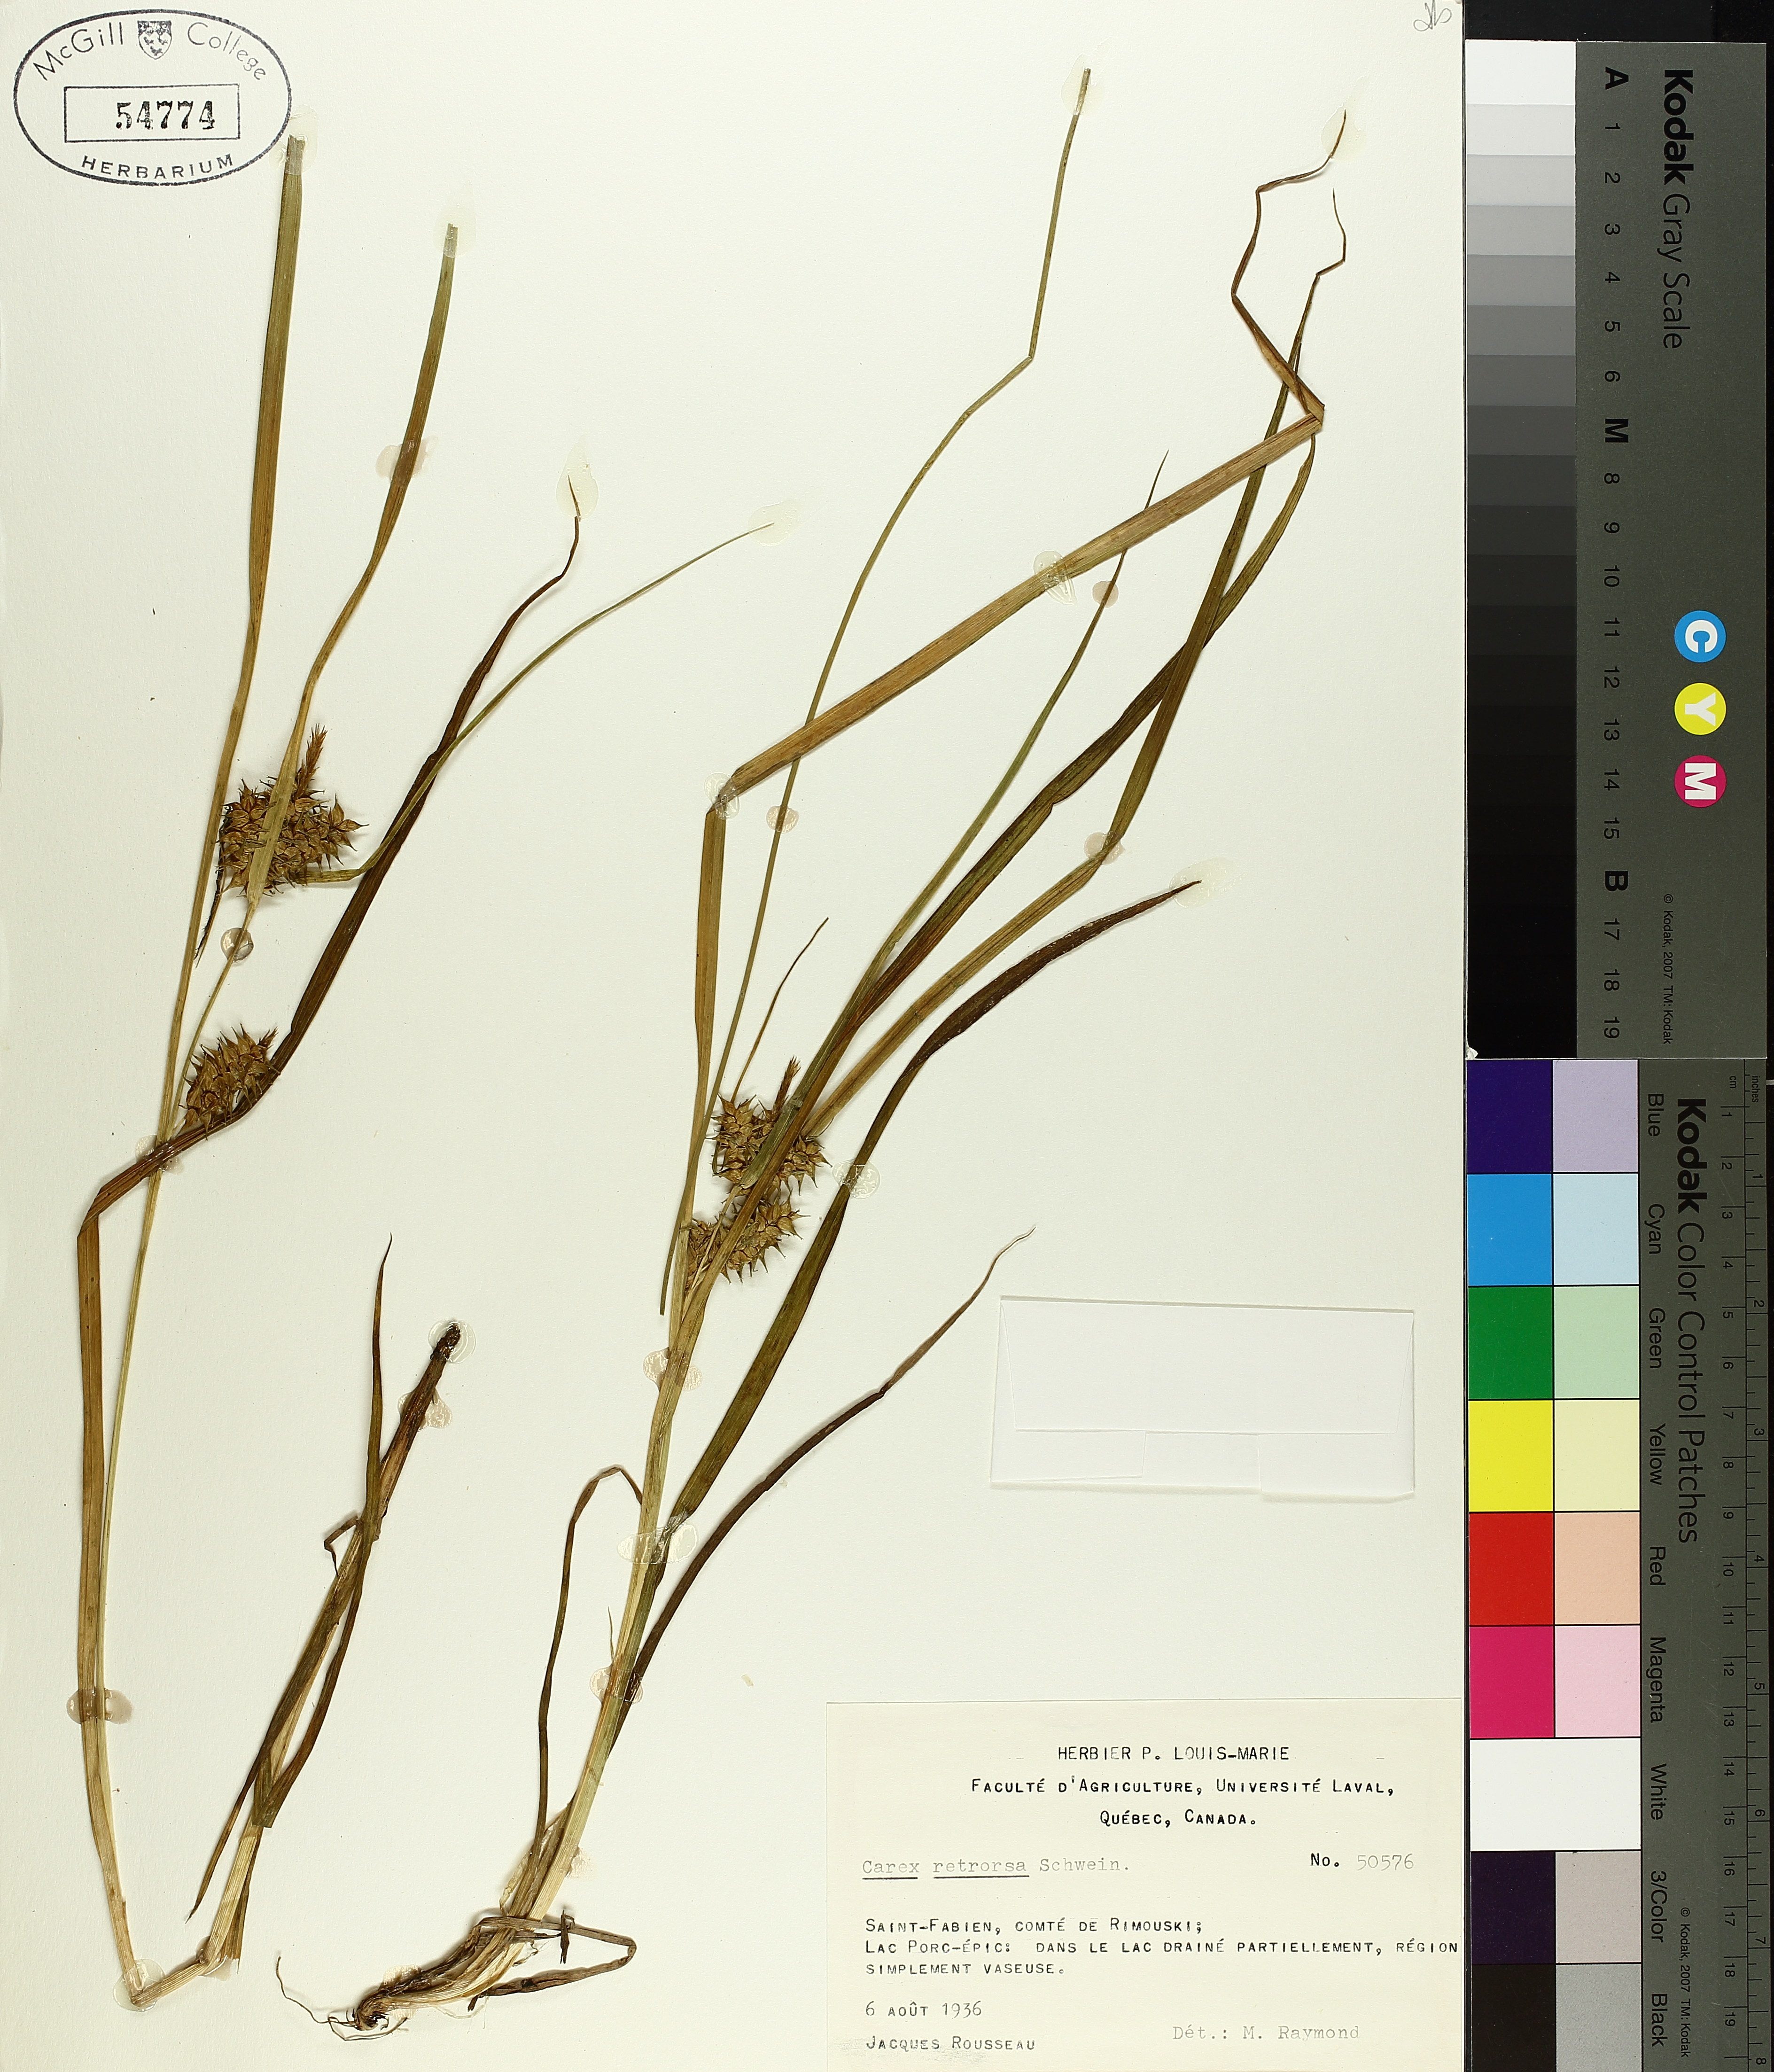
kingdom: Plantae
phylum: Tracheophyta
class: Liliopsida
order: Poales
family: Cyperaceae
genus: Carex
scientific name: Carex retrorsa
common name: Knot-sheath sedge
